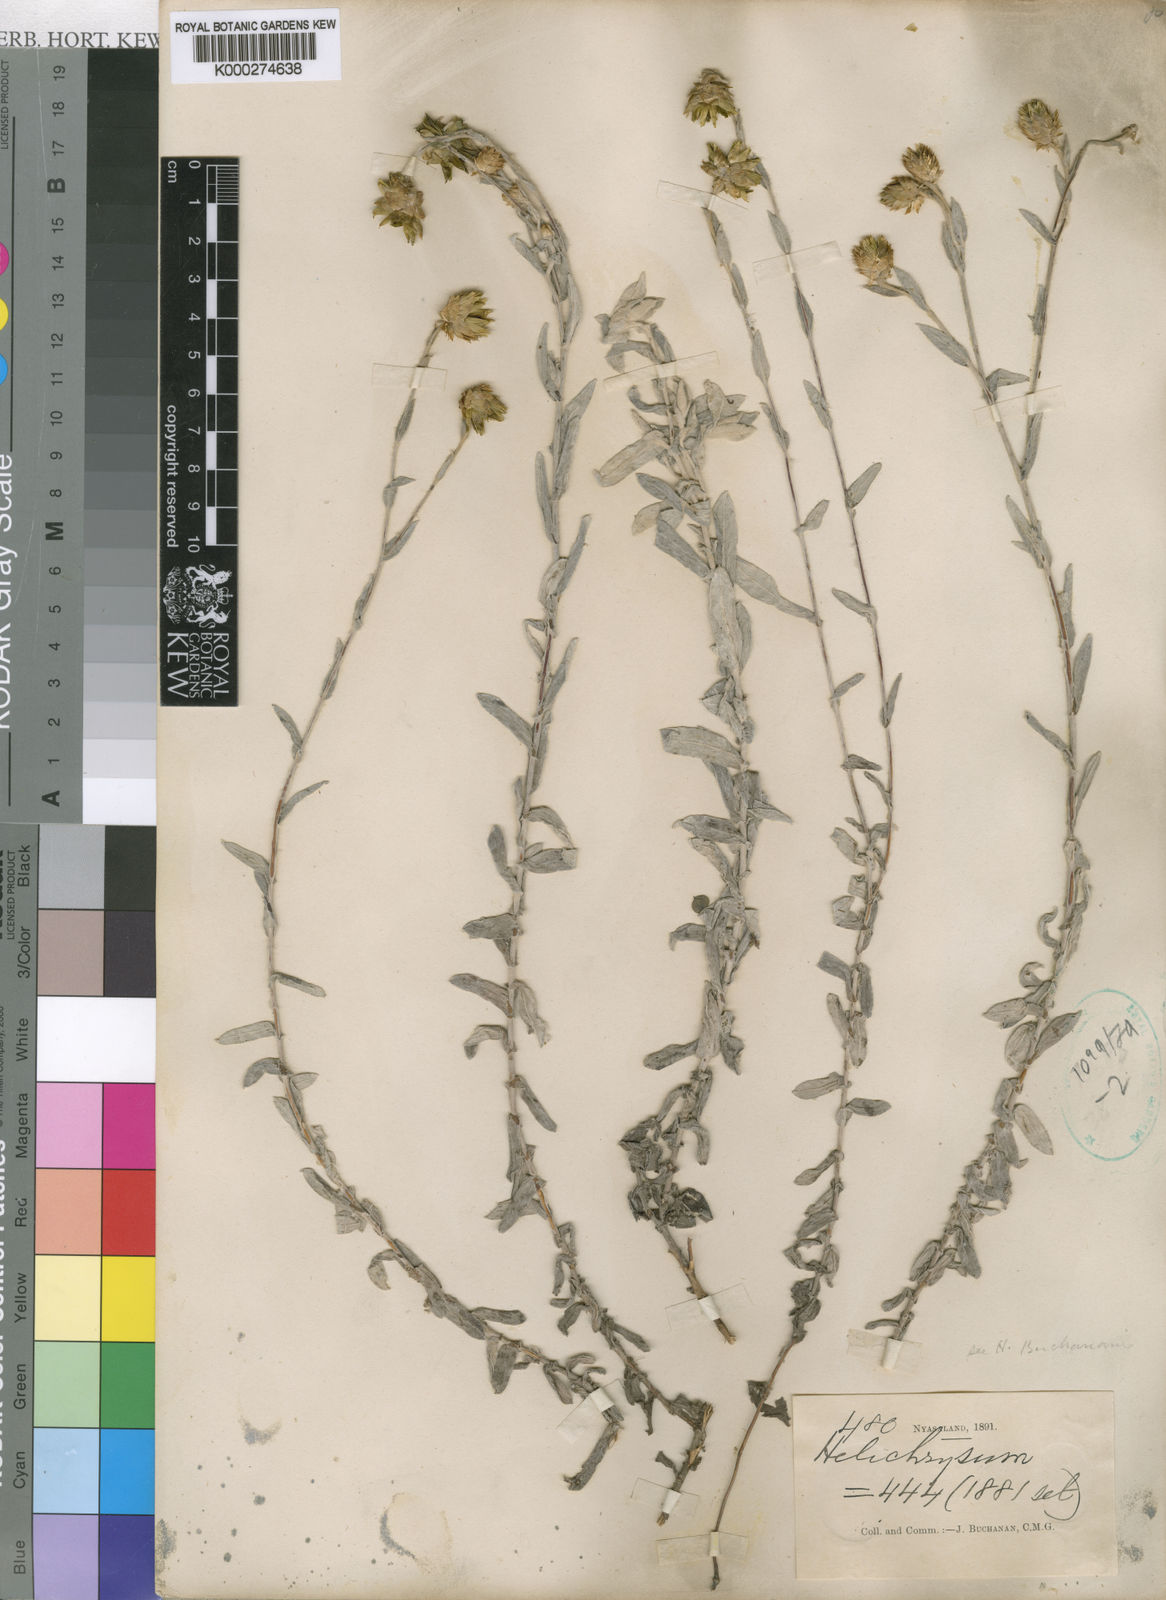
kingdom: Plantae
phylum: Tracheophyta
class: Magnoliopsida
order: Asterales
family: Asteraceae
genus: Helichrysum
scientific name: Helichrysum buchananii
